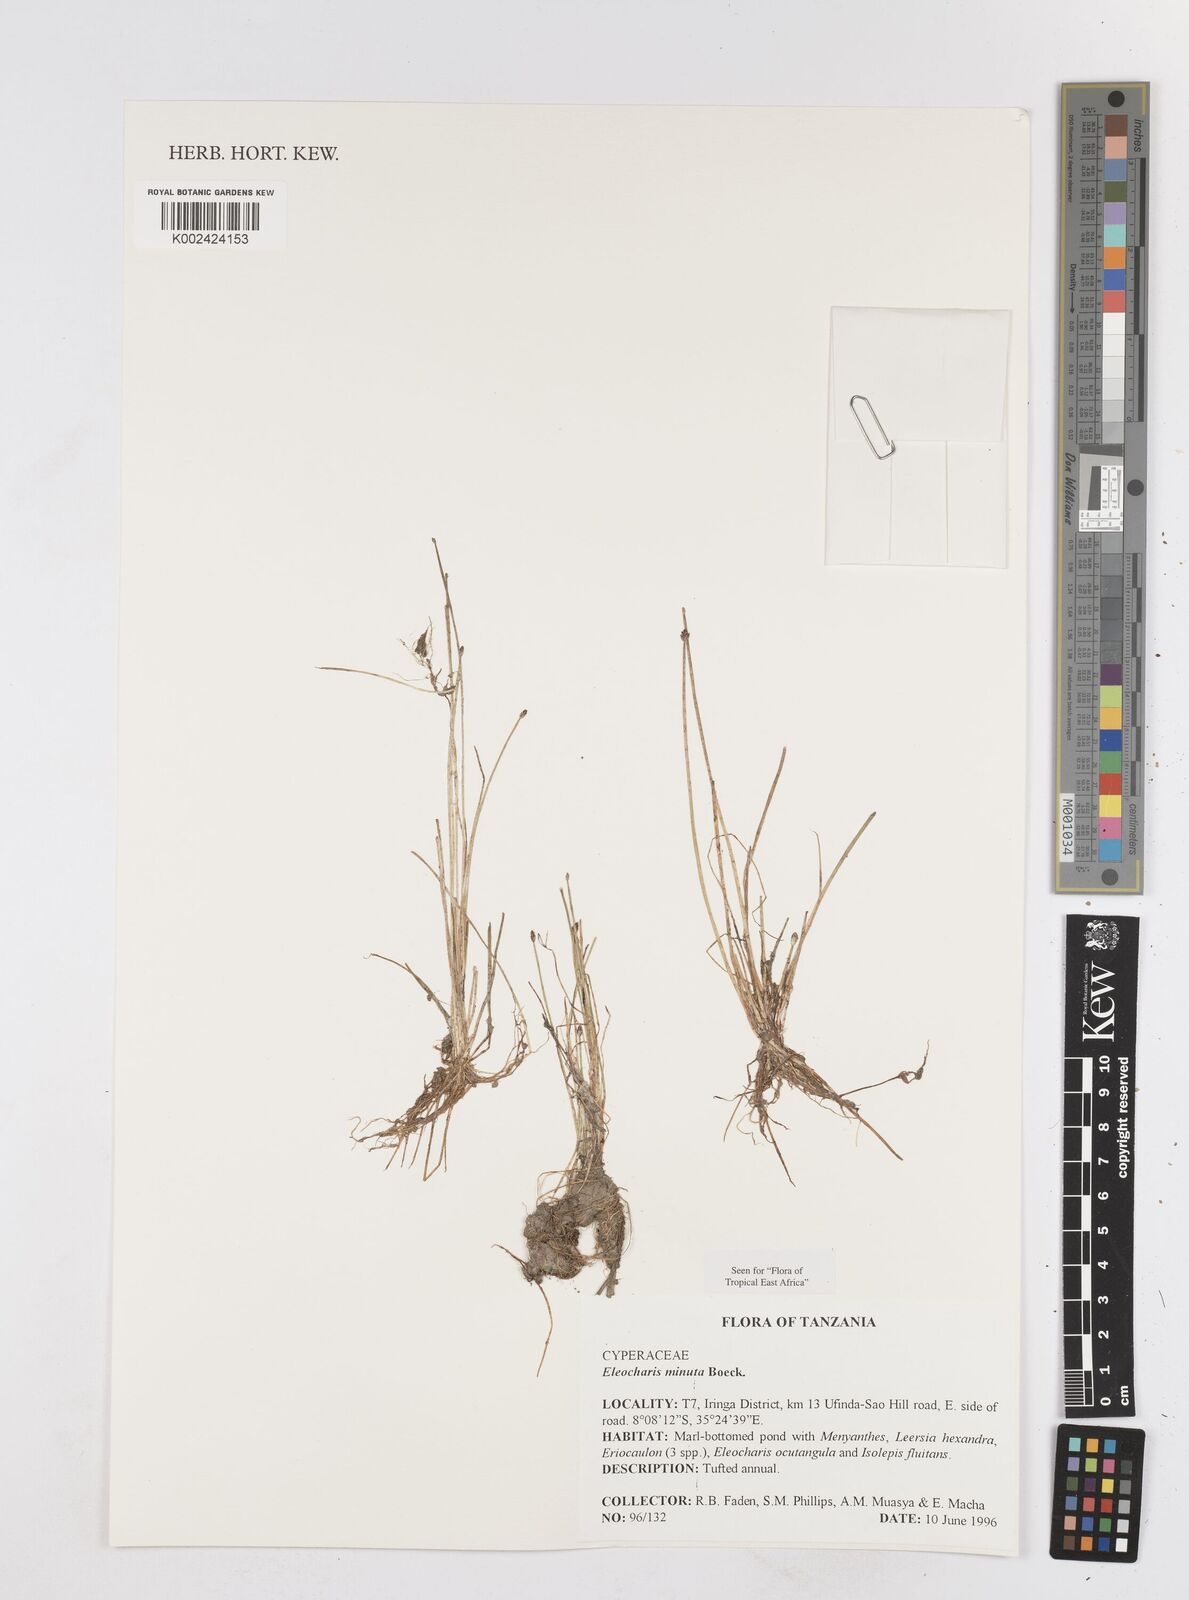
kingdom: Plantae
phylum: Tracheophyta
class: Liliopsida
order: Poales
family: Cyperaceae
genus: Eleocharis
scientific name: Eleocharis minuta
